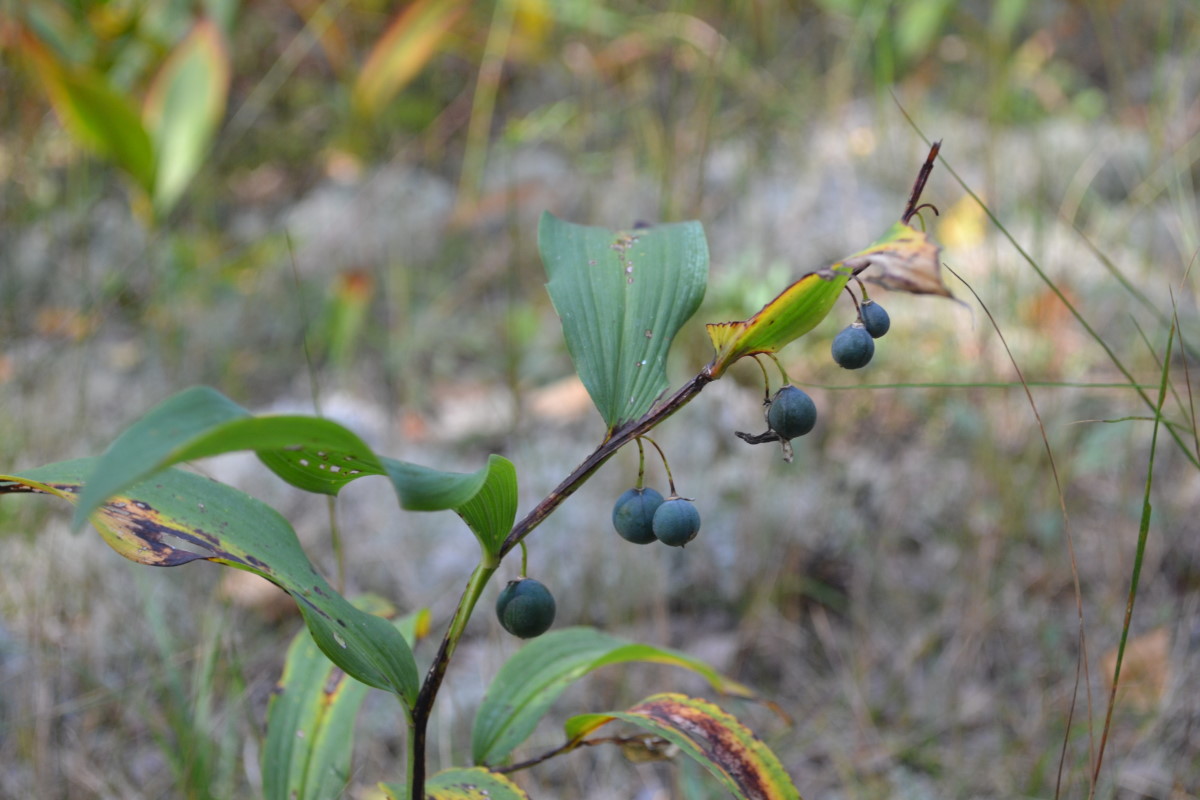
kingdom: Plantae
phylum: Tracheophyta
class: Liliopsida
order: Asparagales
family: Asparagaceae
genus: Polygonatum
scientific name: Polygonatum odoratum
